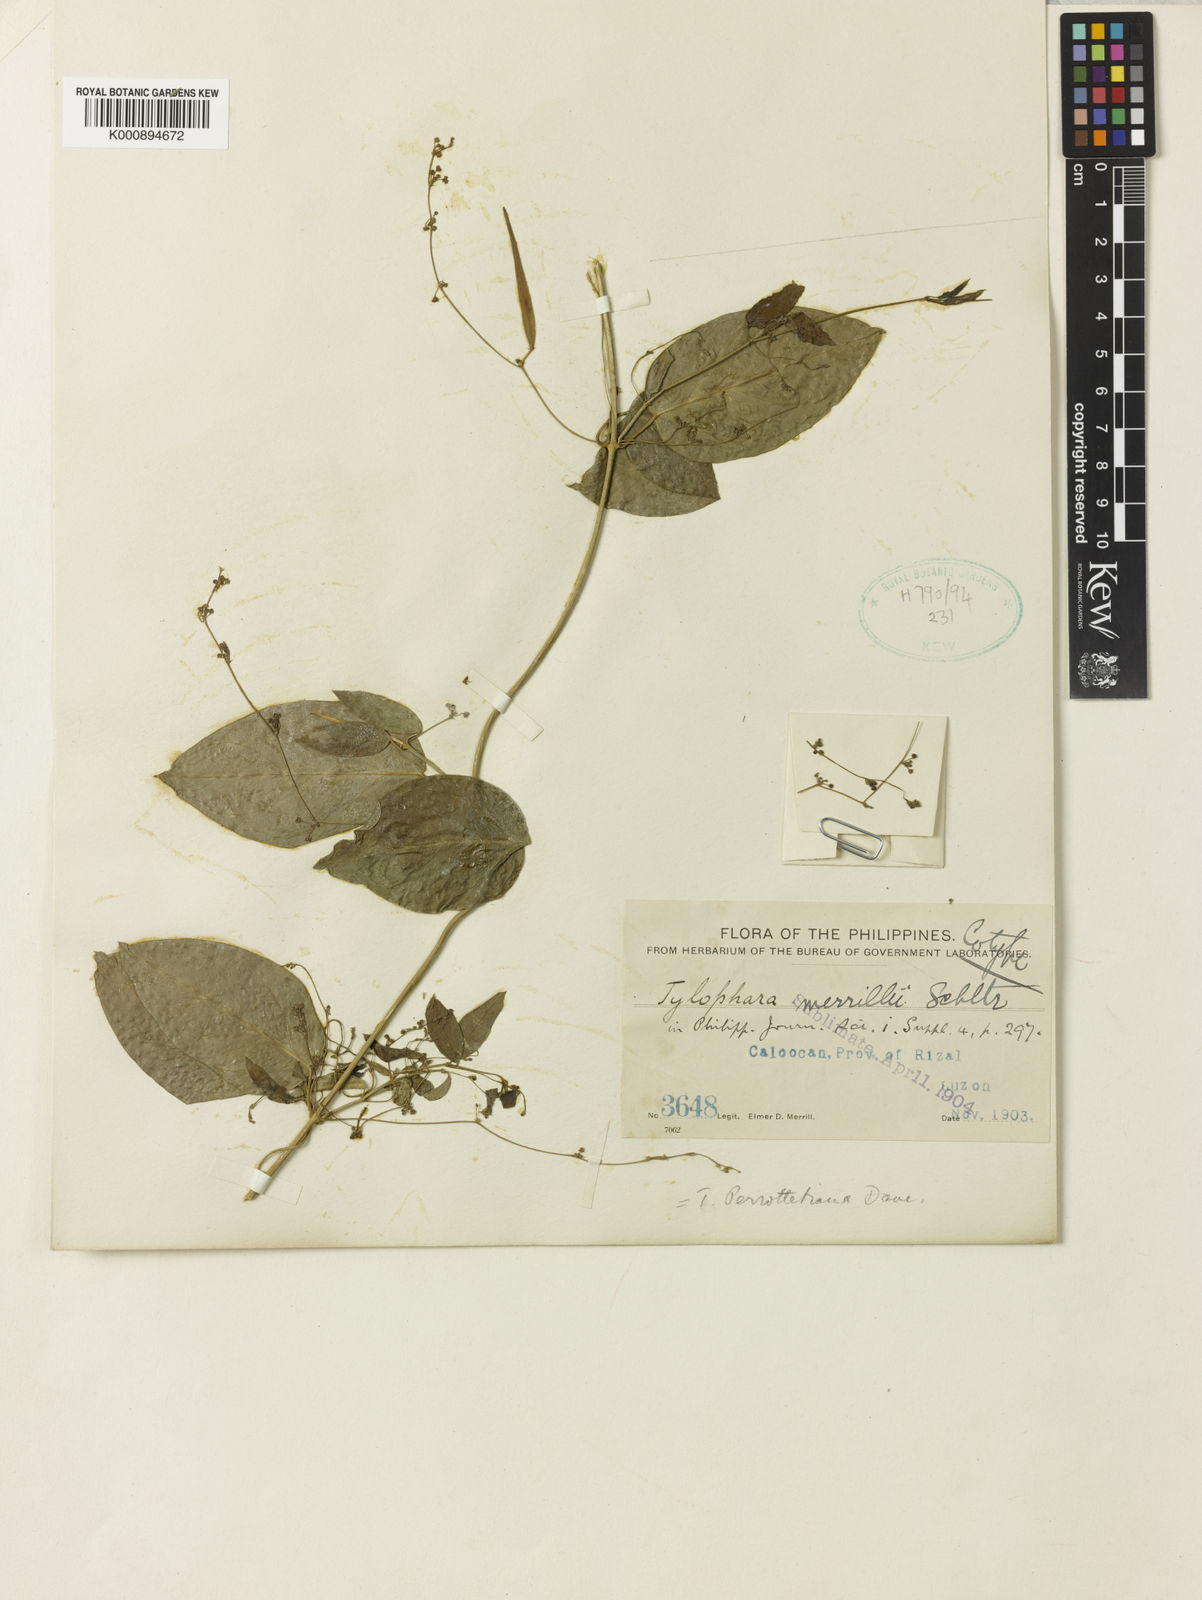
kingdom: Plantae
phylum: Tracheophyta
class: Magnoliopsida
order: Gentianales
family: Apocynaceae
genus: Vincetoxicum
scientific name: Vincetoxicum flexuosum
